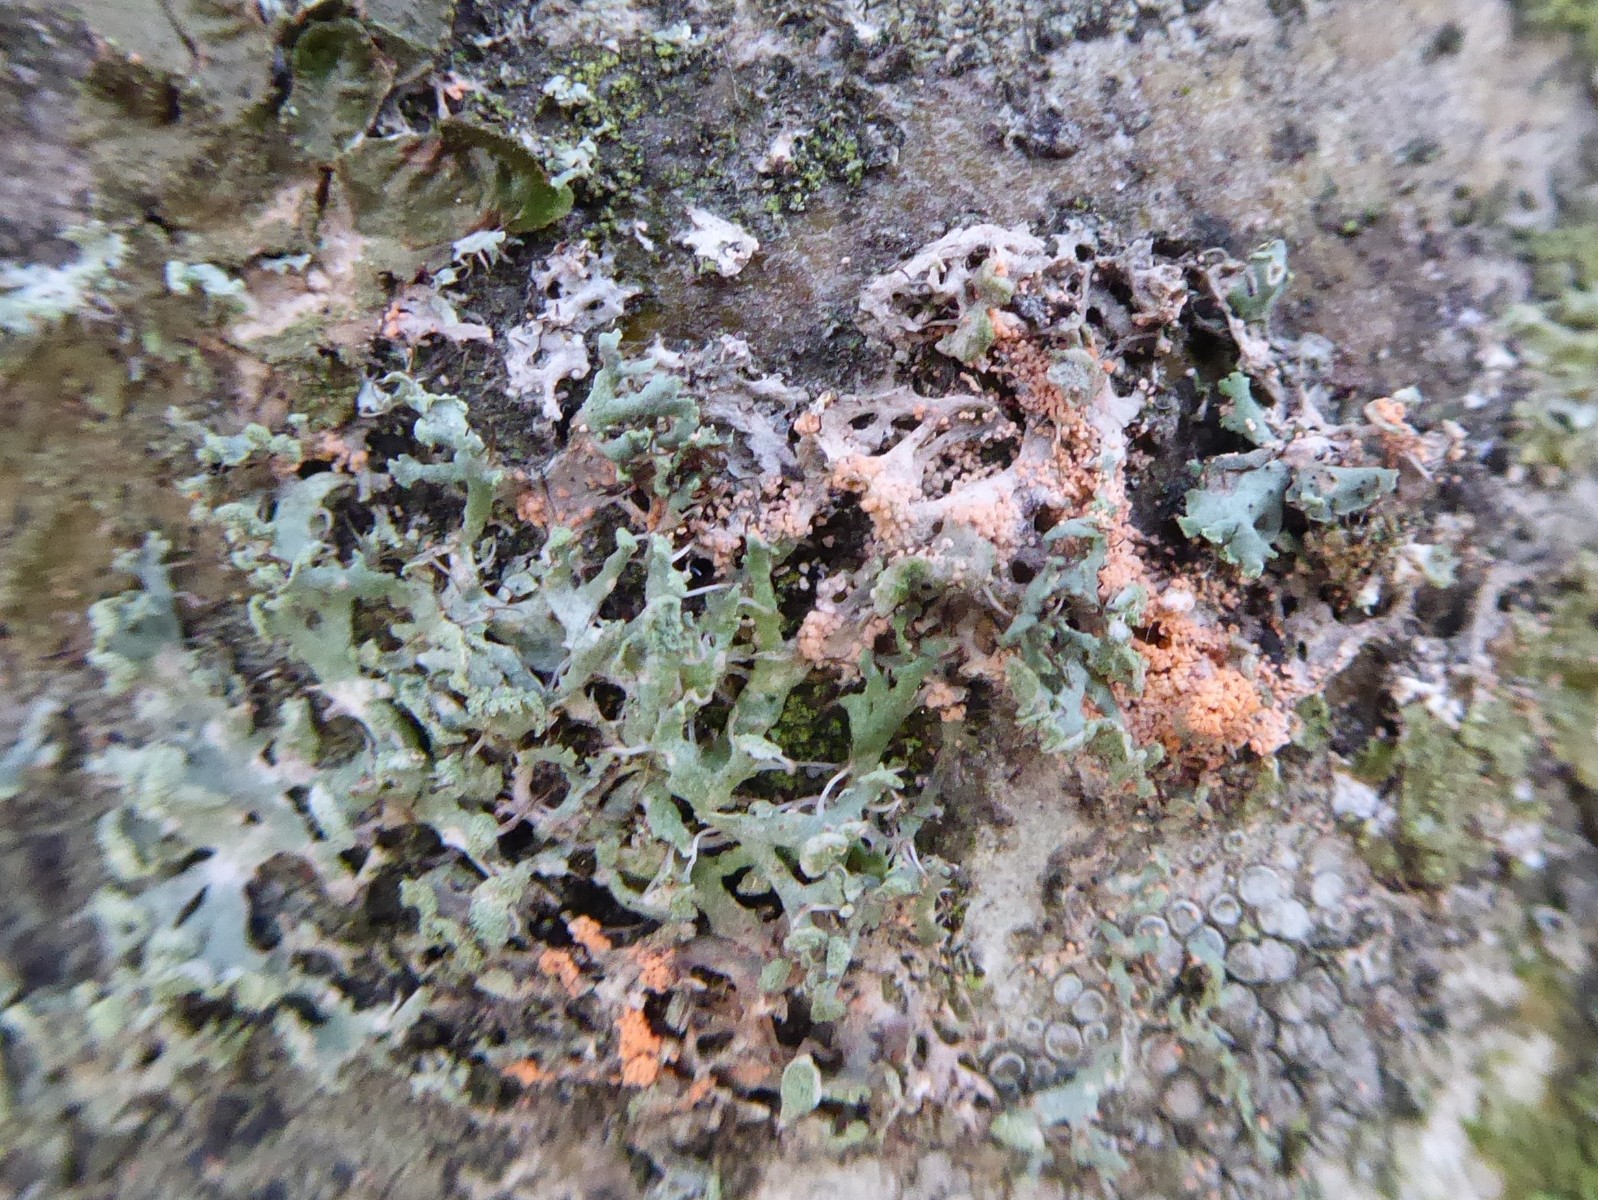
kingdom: Fungi
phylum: Basidiomycota
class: Agaricomycetes
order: Corticiales
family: Corticiaceae
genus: Erythricium
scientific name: Erythricium aurantiacum
